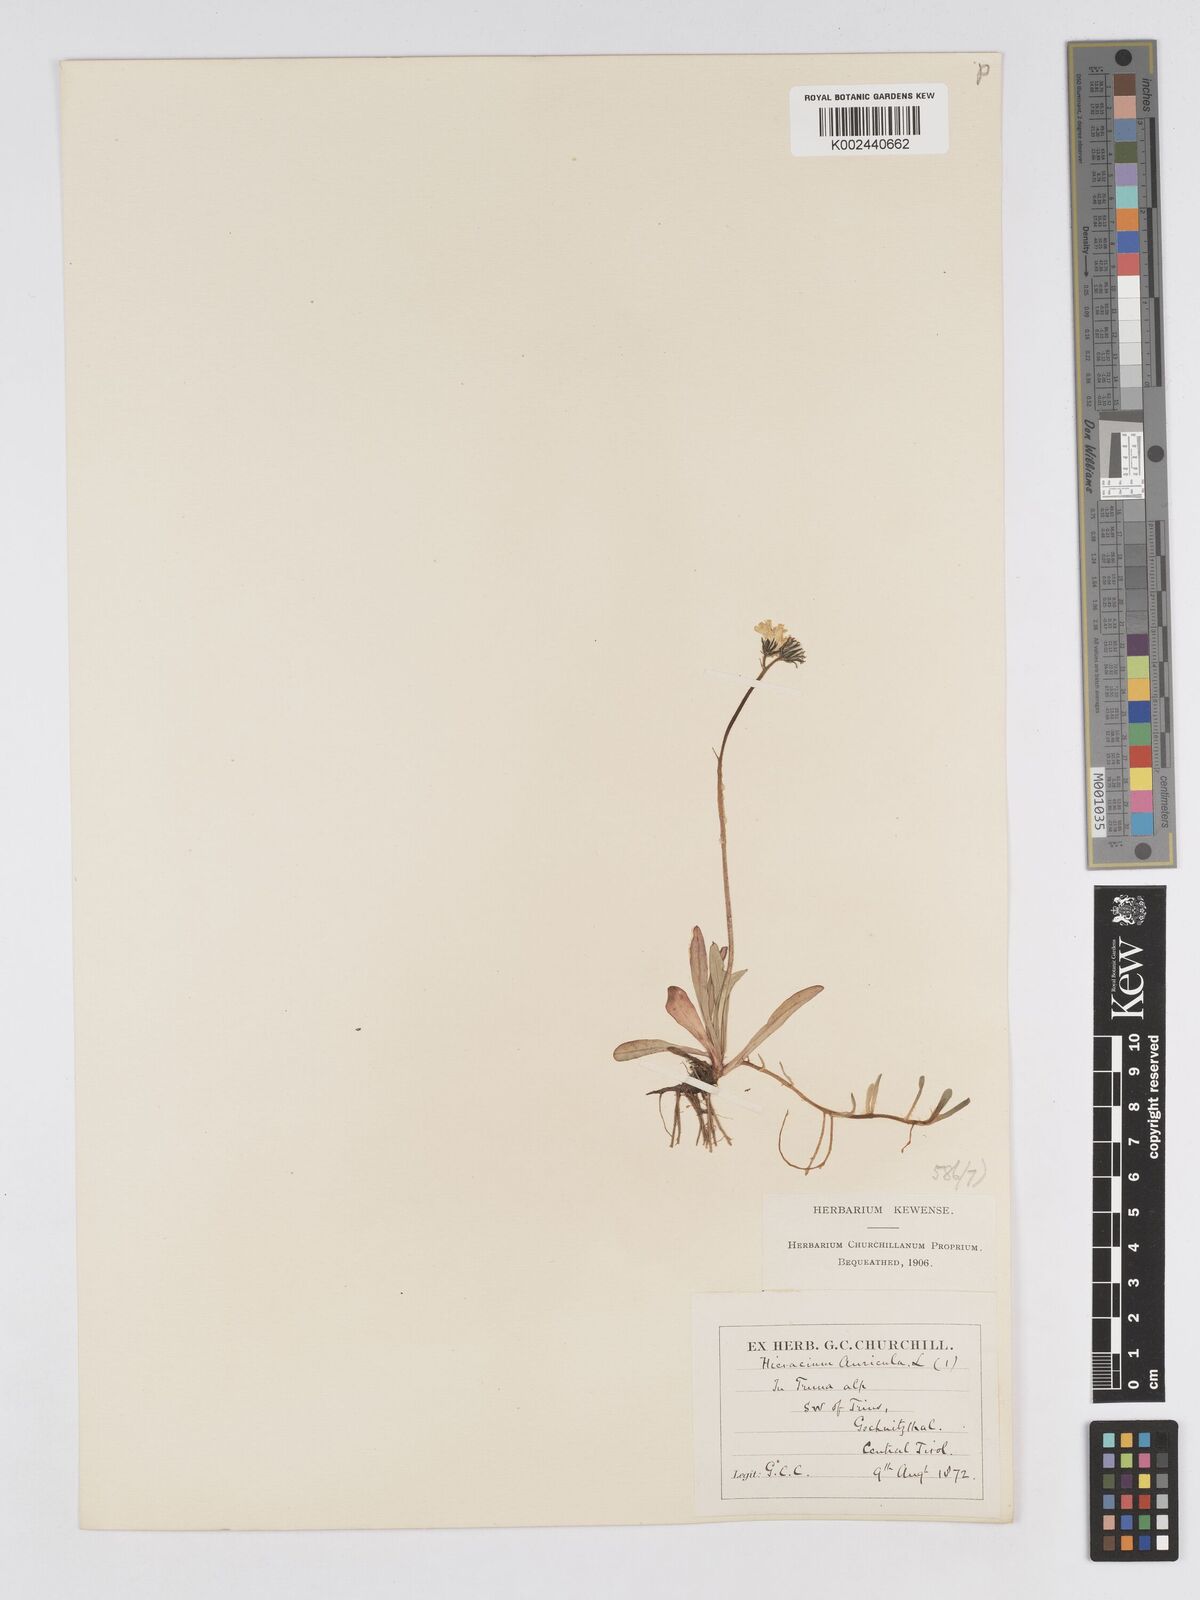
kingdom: Plantae
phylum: Tracheophyta
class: Magnoliopsida
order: Asterales
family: Asteraceae
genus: Pilosella
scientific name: Pilosella floribunda
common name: Glaucous hawkweed
